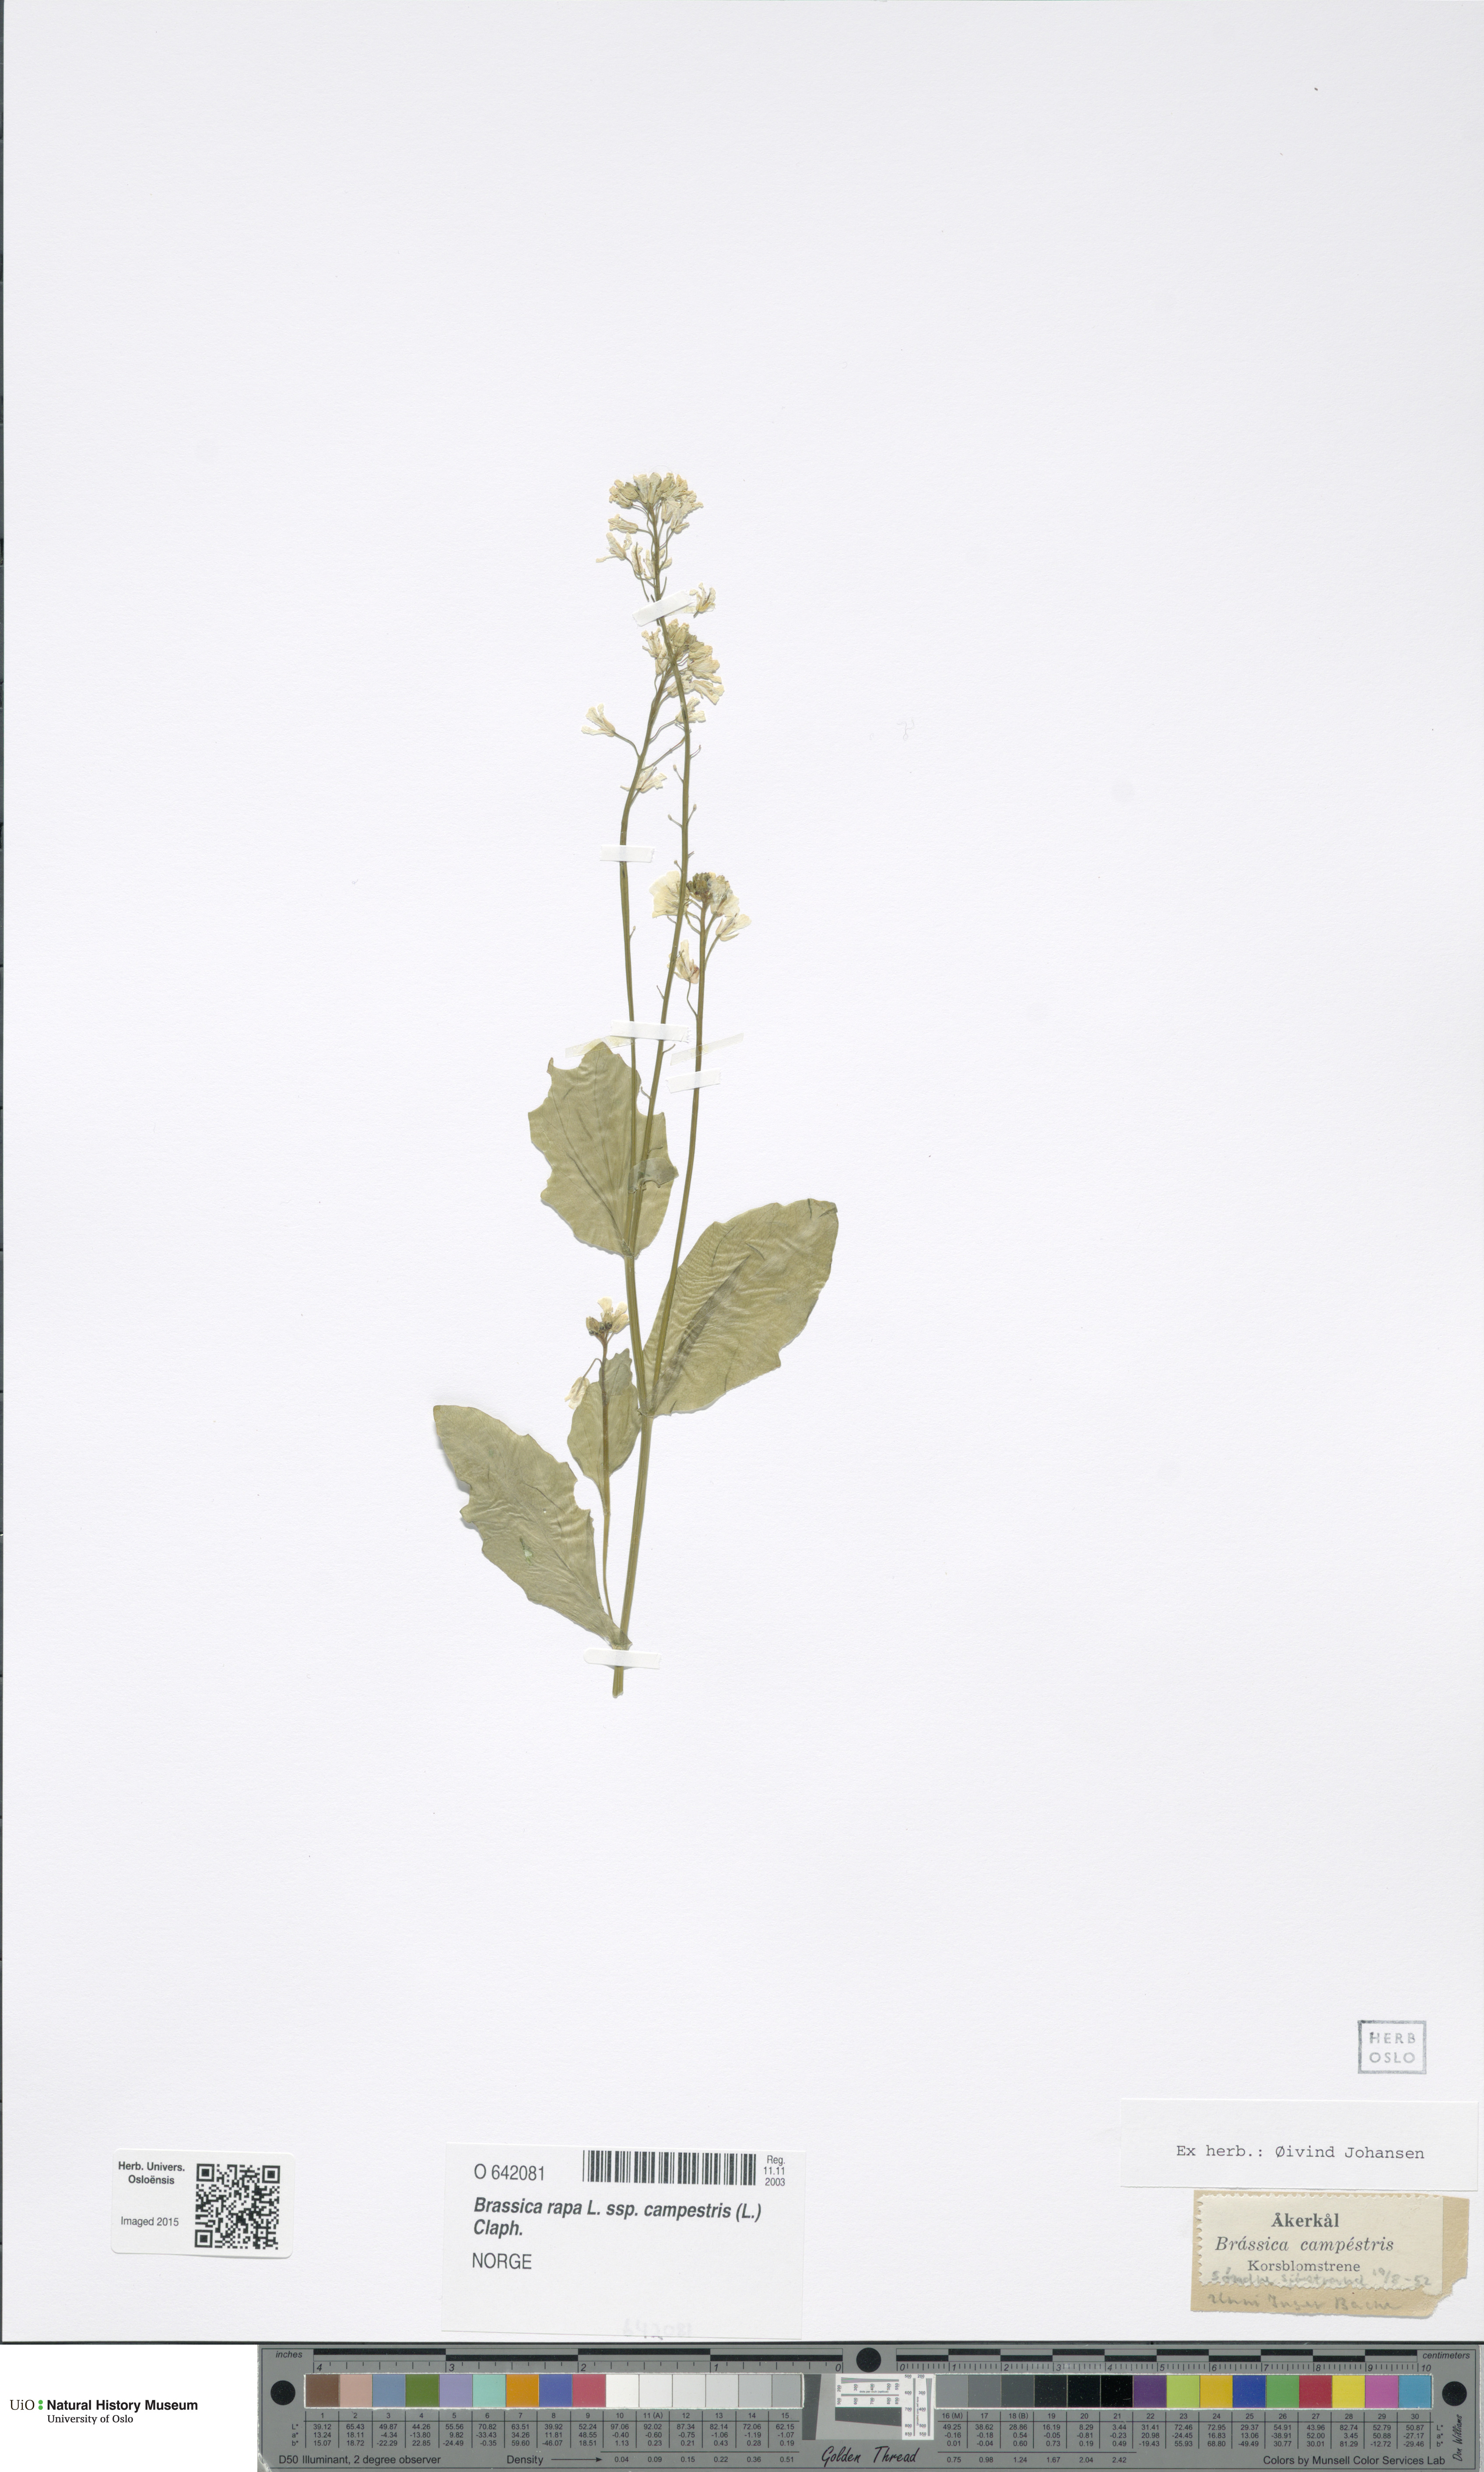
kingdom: Plantae
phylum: Tracheophyta
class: Magnoliopsida
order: Brassicales
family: Brassicaceae
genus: Brassica
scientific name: Brassica rapa
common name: Field mustard
